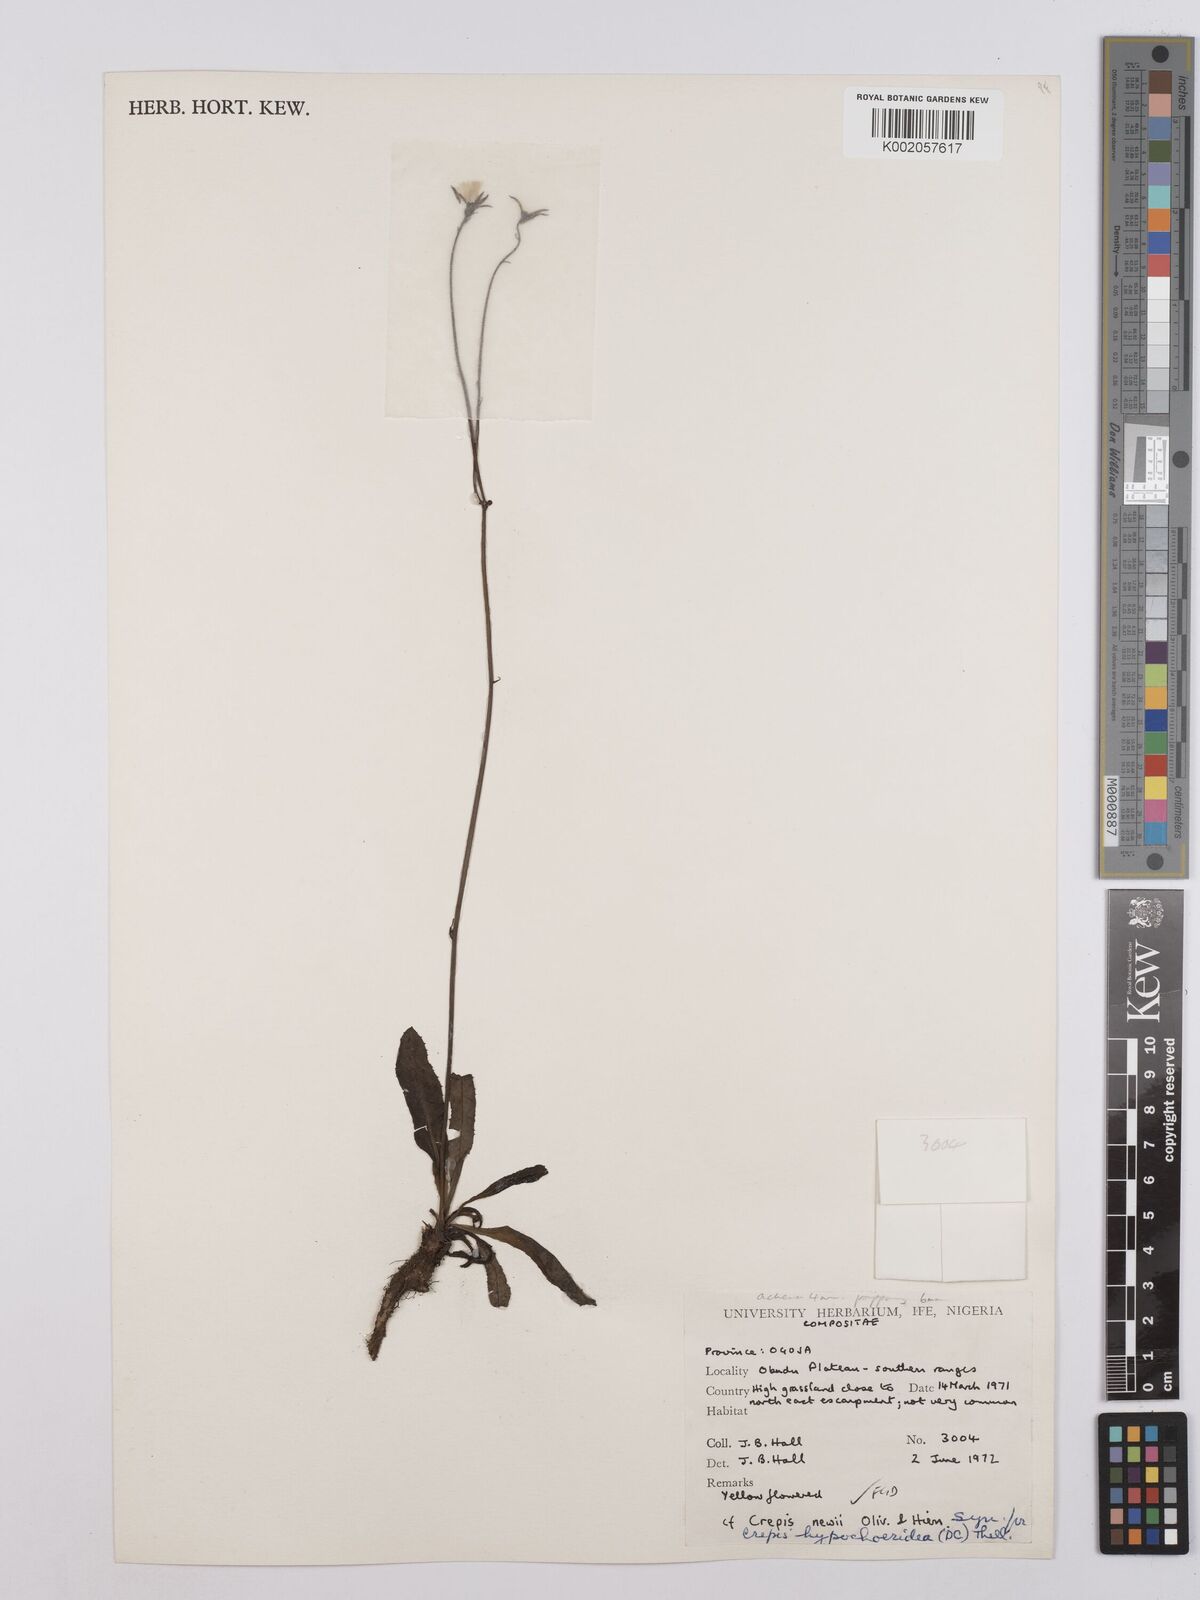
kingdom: Plantae
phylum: Tracheophyta
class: Magnoliopsida
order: Asterales
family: Asteraceae
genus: Crepis
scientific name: Crepis hypochoeridea
